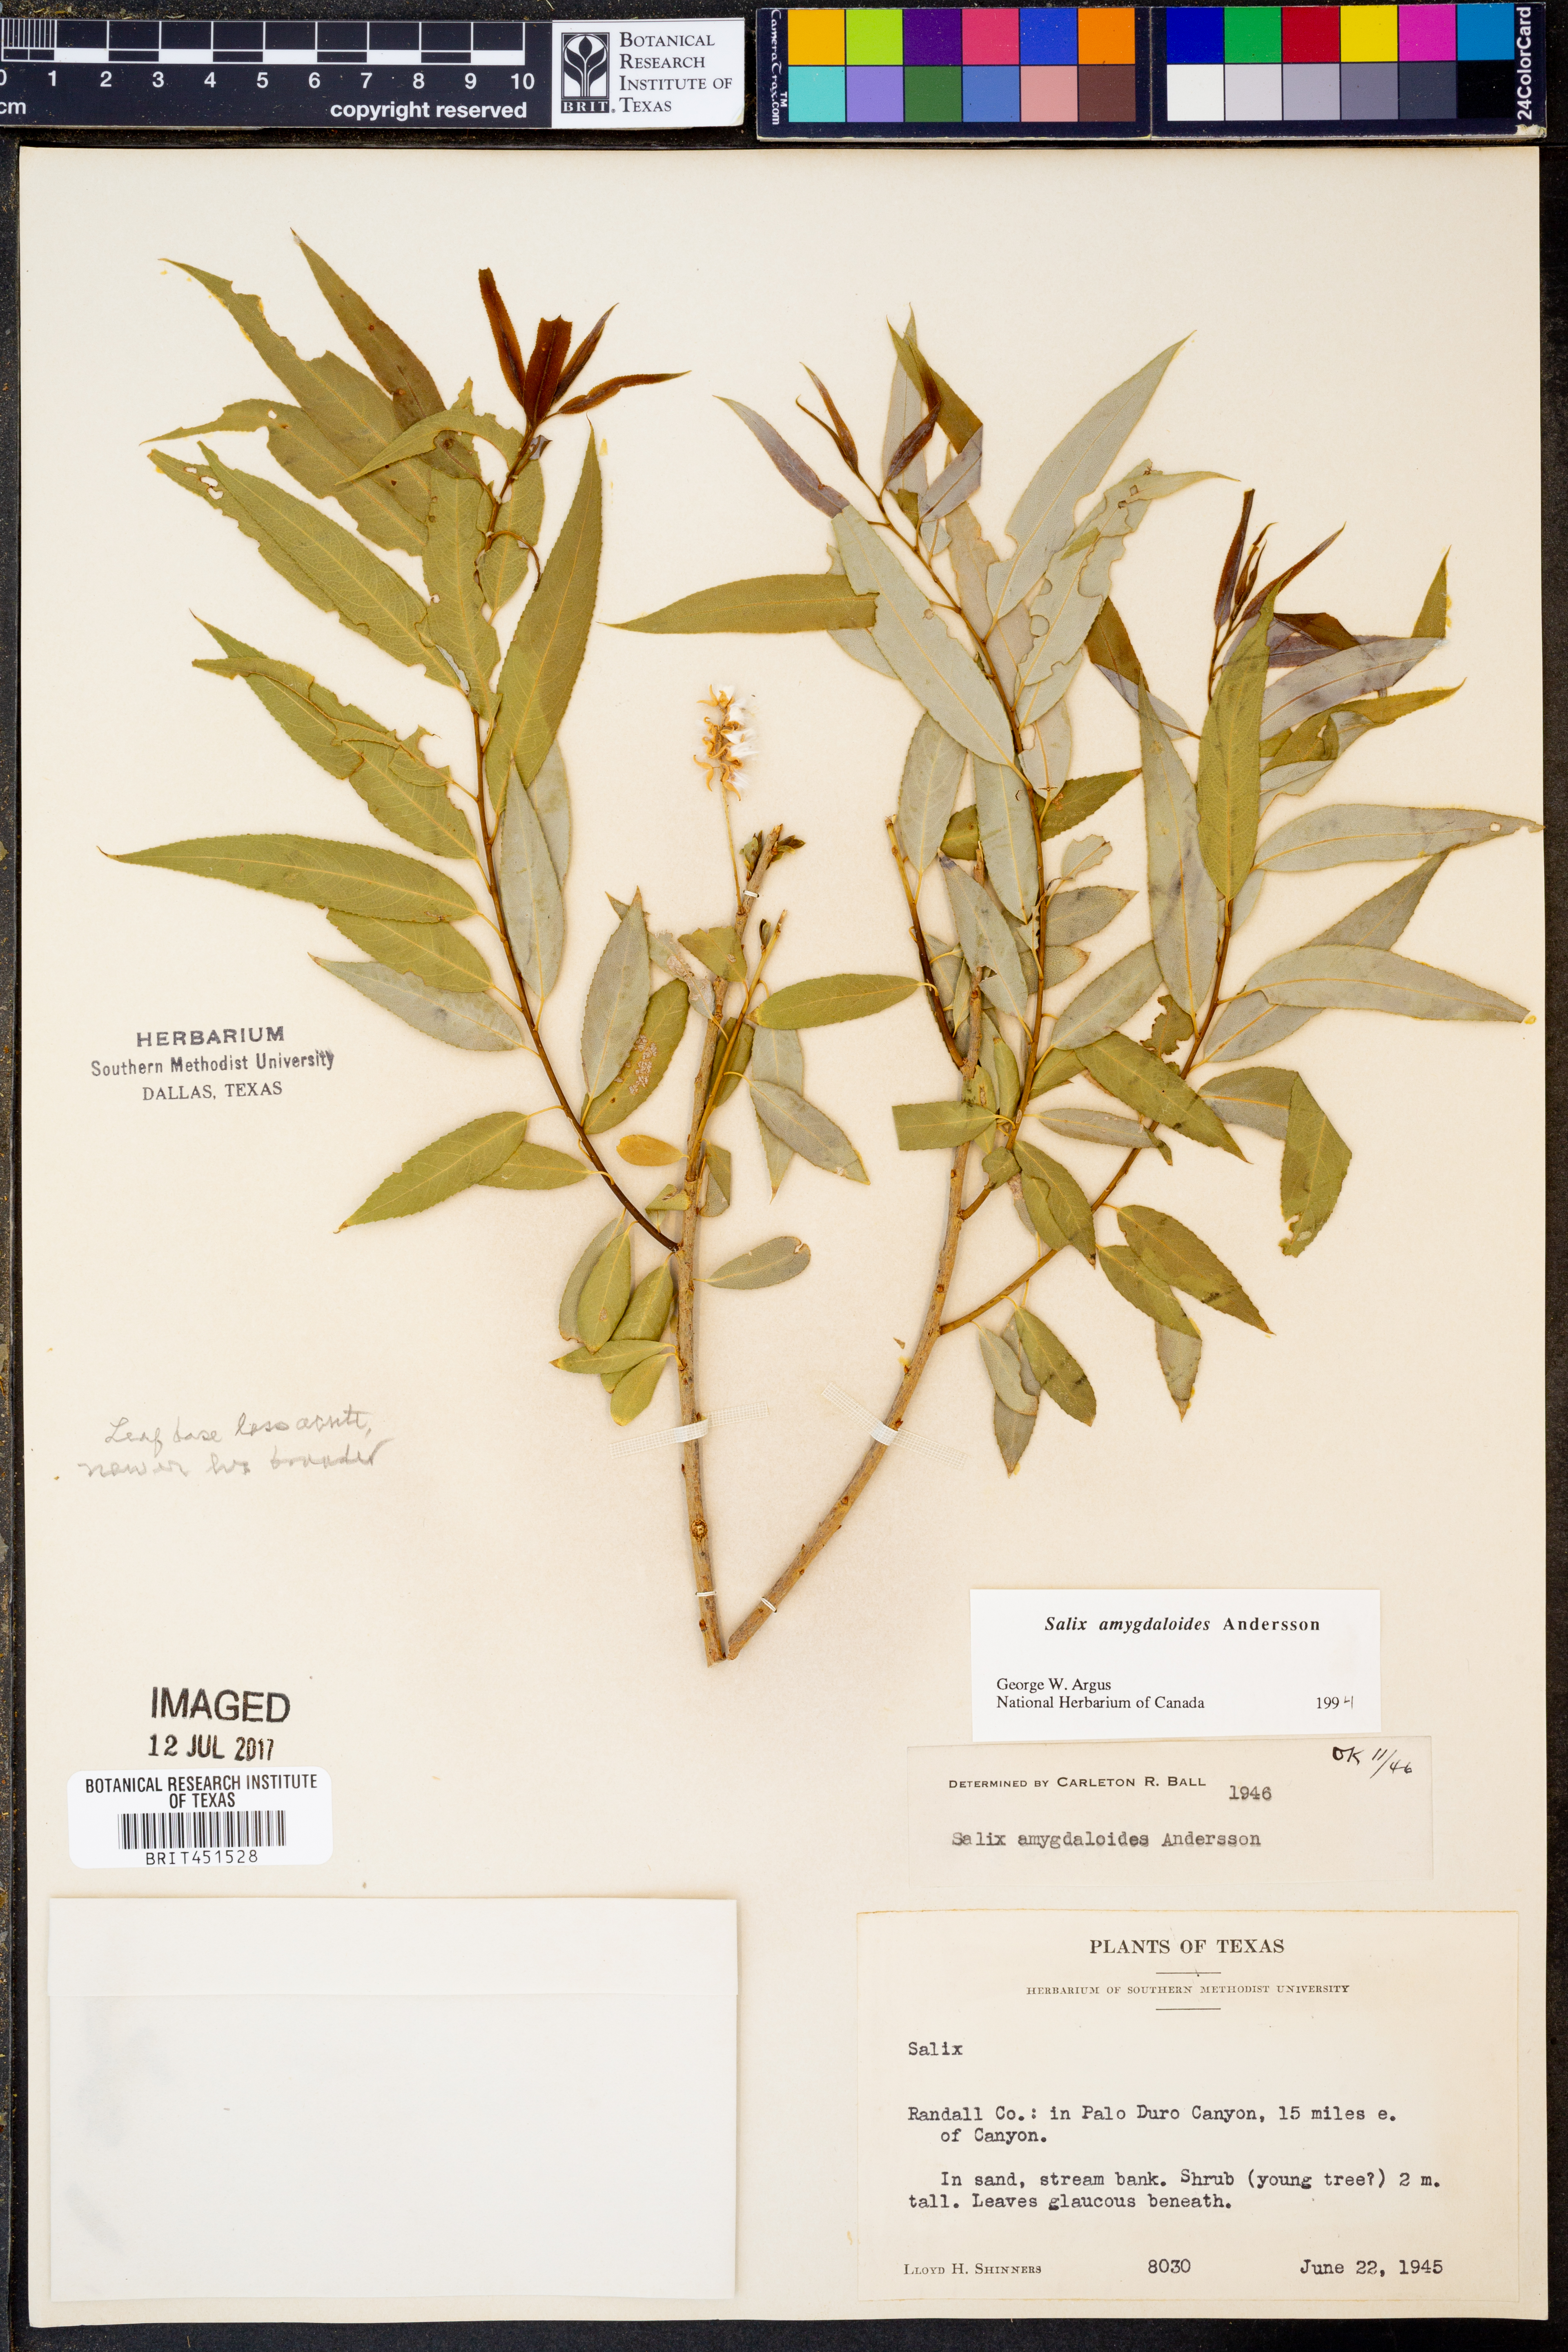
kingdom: Plantae
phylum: Tracheophyta
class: Magnoliopsida
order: Malpighiales
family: Salicaceae
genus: Salix
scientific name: Salix amygdaloides
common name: Peach leaf willow
